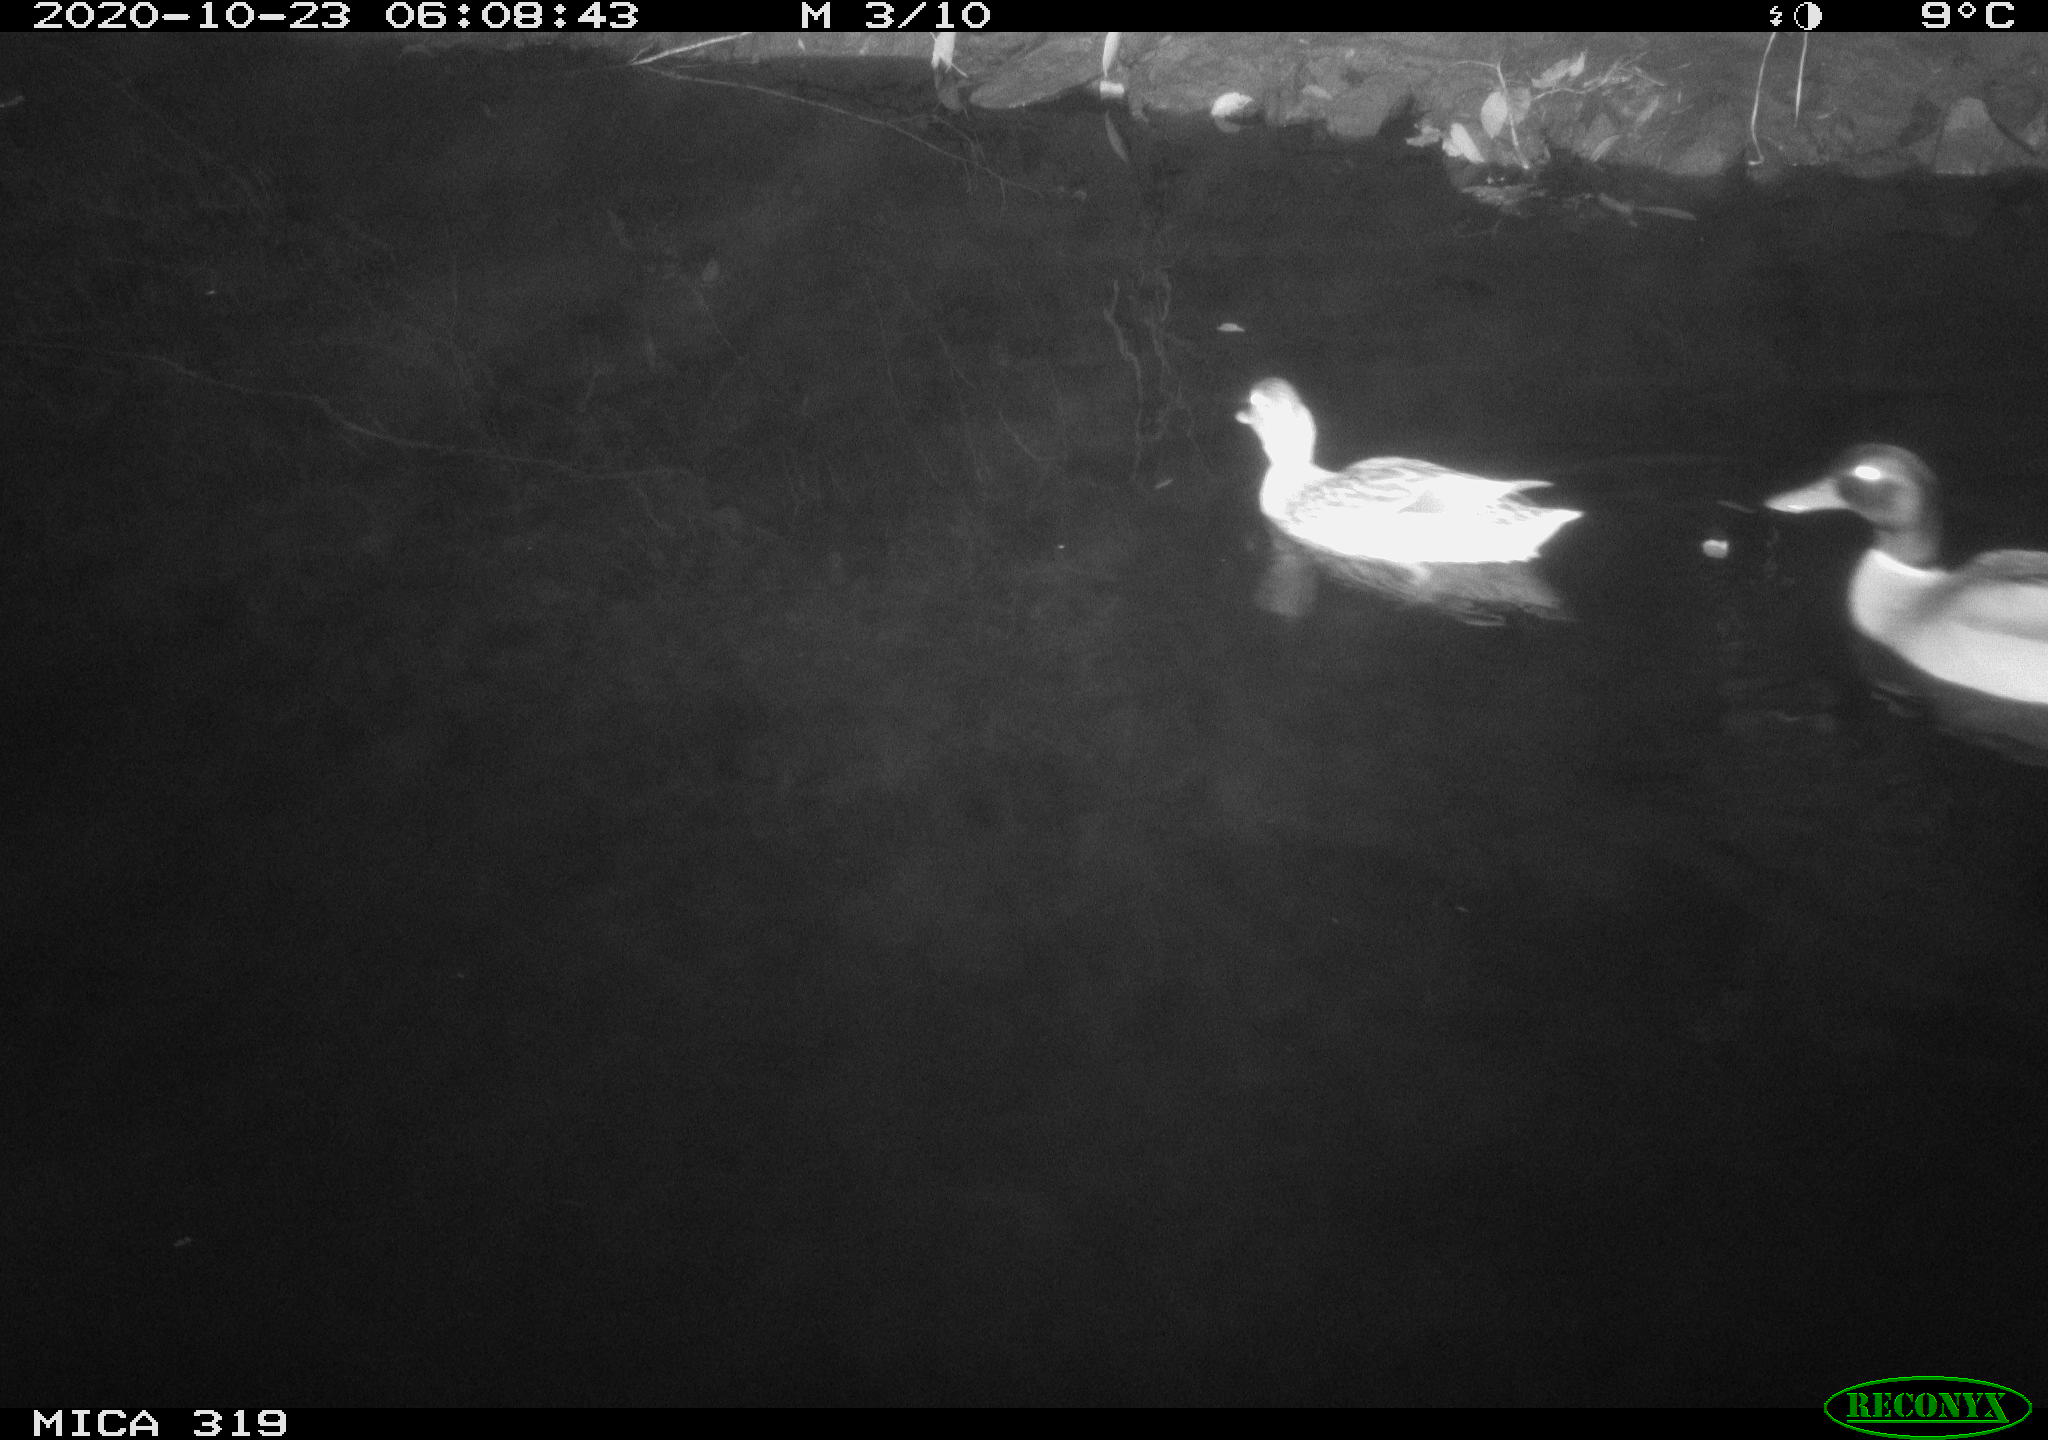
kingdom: Animalia
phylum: Chordata
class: Aves
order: Anseriformes
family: Anatidae
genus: Anas
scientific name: Anas platyrhynchos
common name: Mallard
